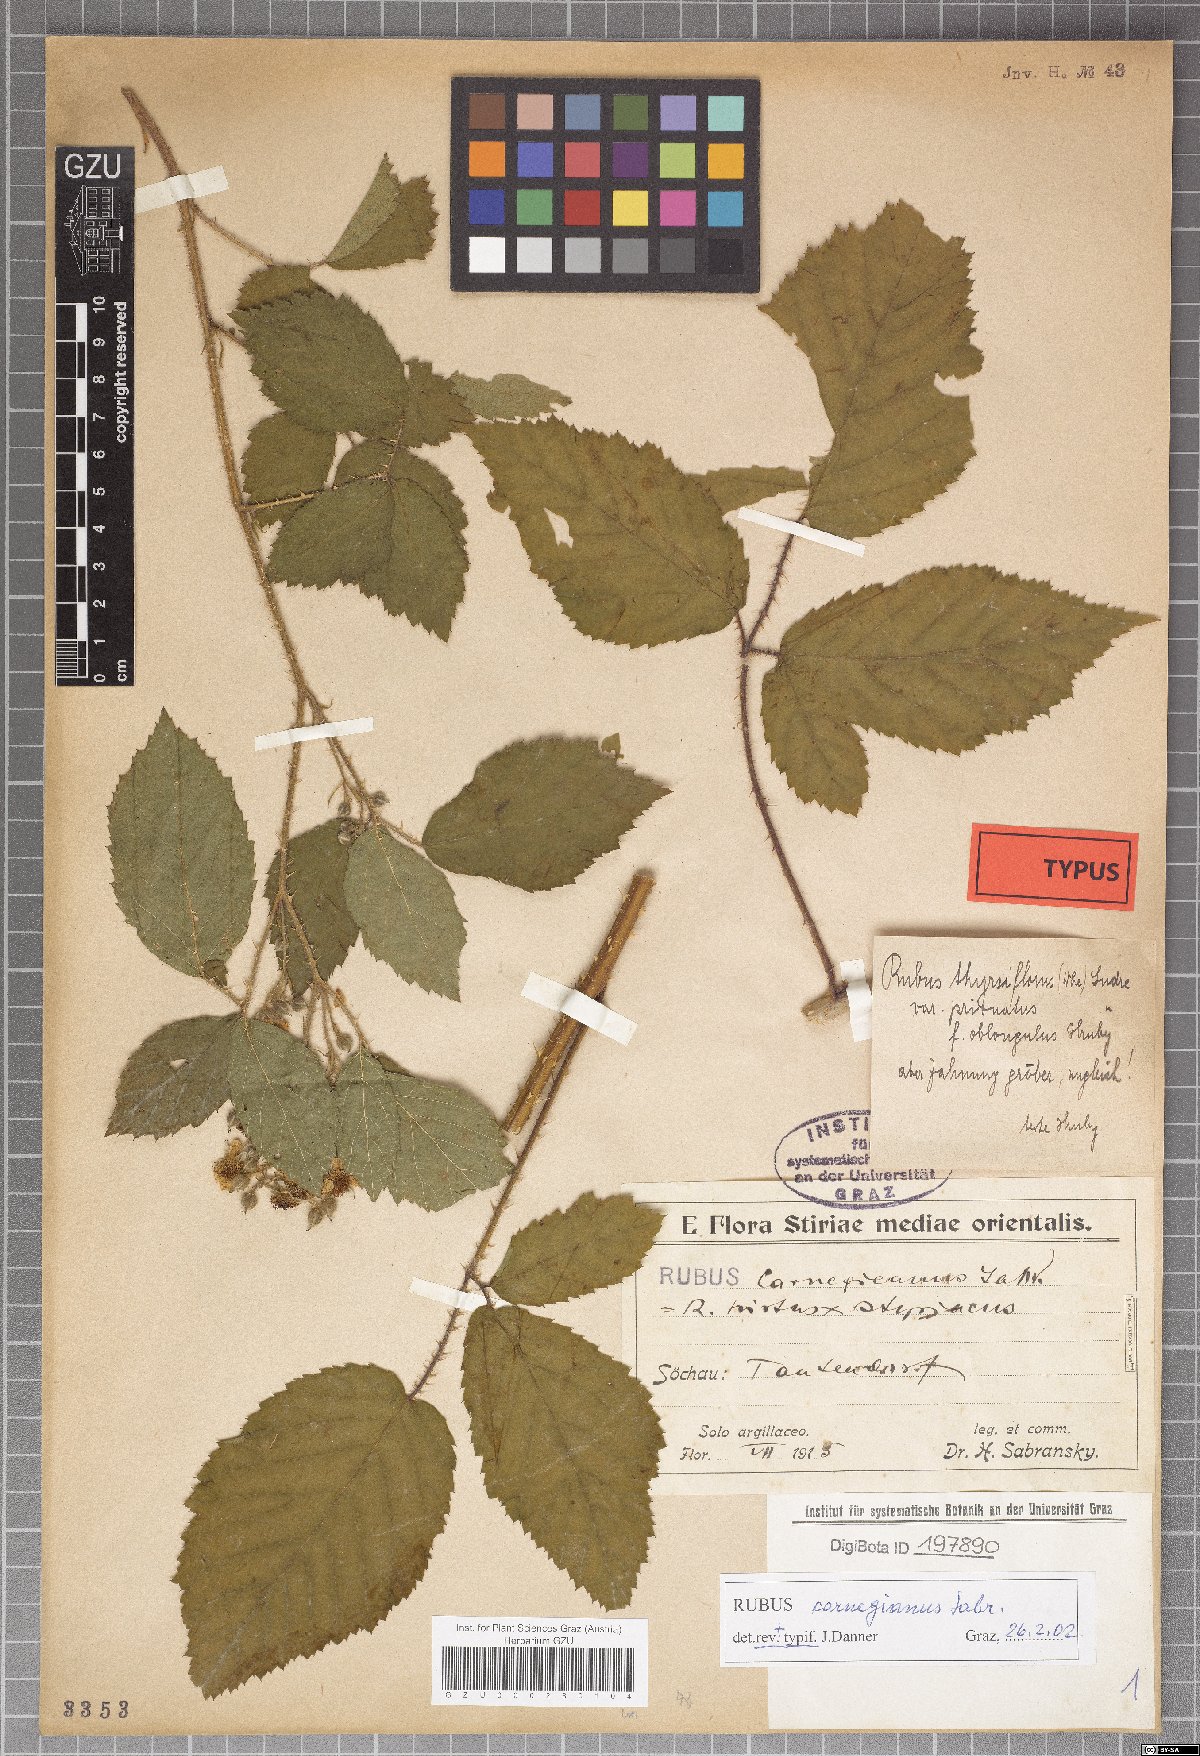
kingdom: Plantae
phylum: Tracheophyta
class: Magnoliopsida
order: Rosales
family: Rosaceae
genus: Rubus
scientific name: Rubus castoreus
